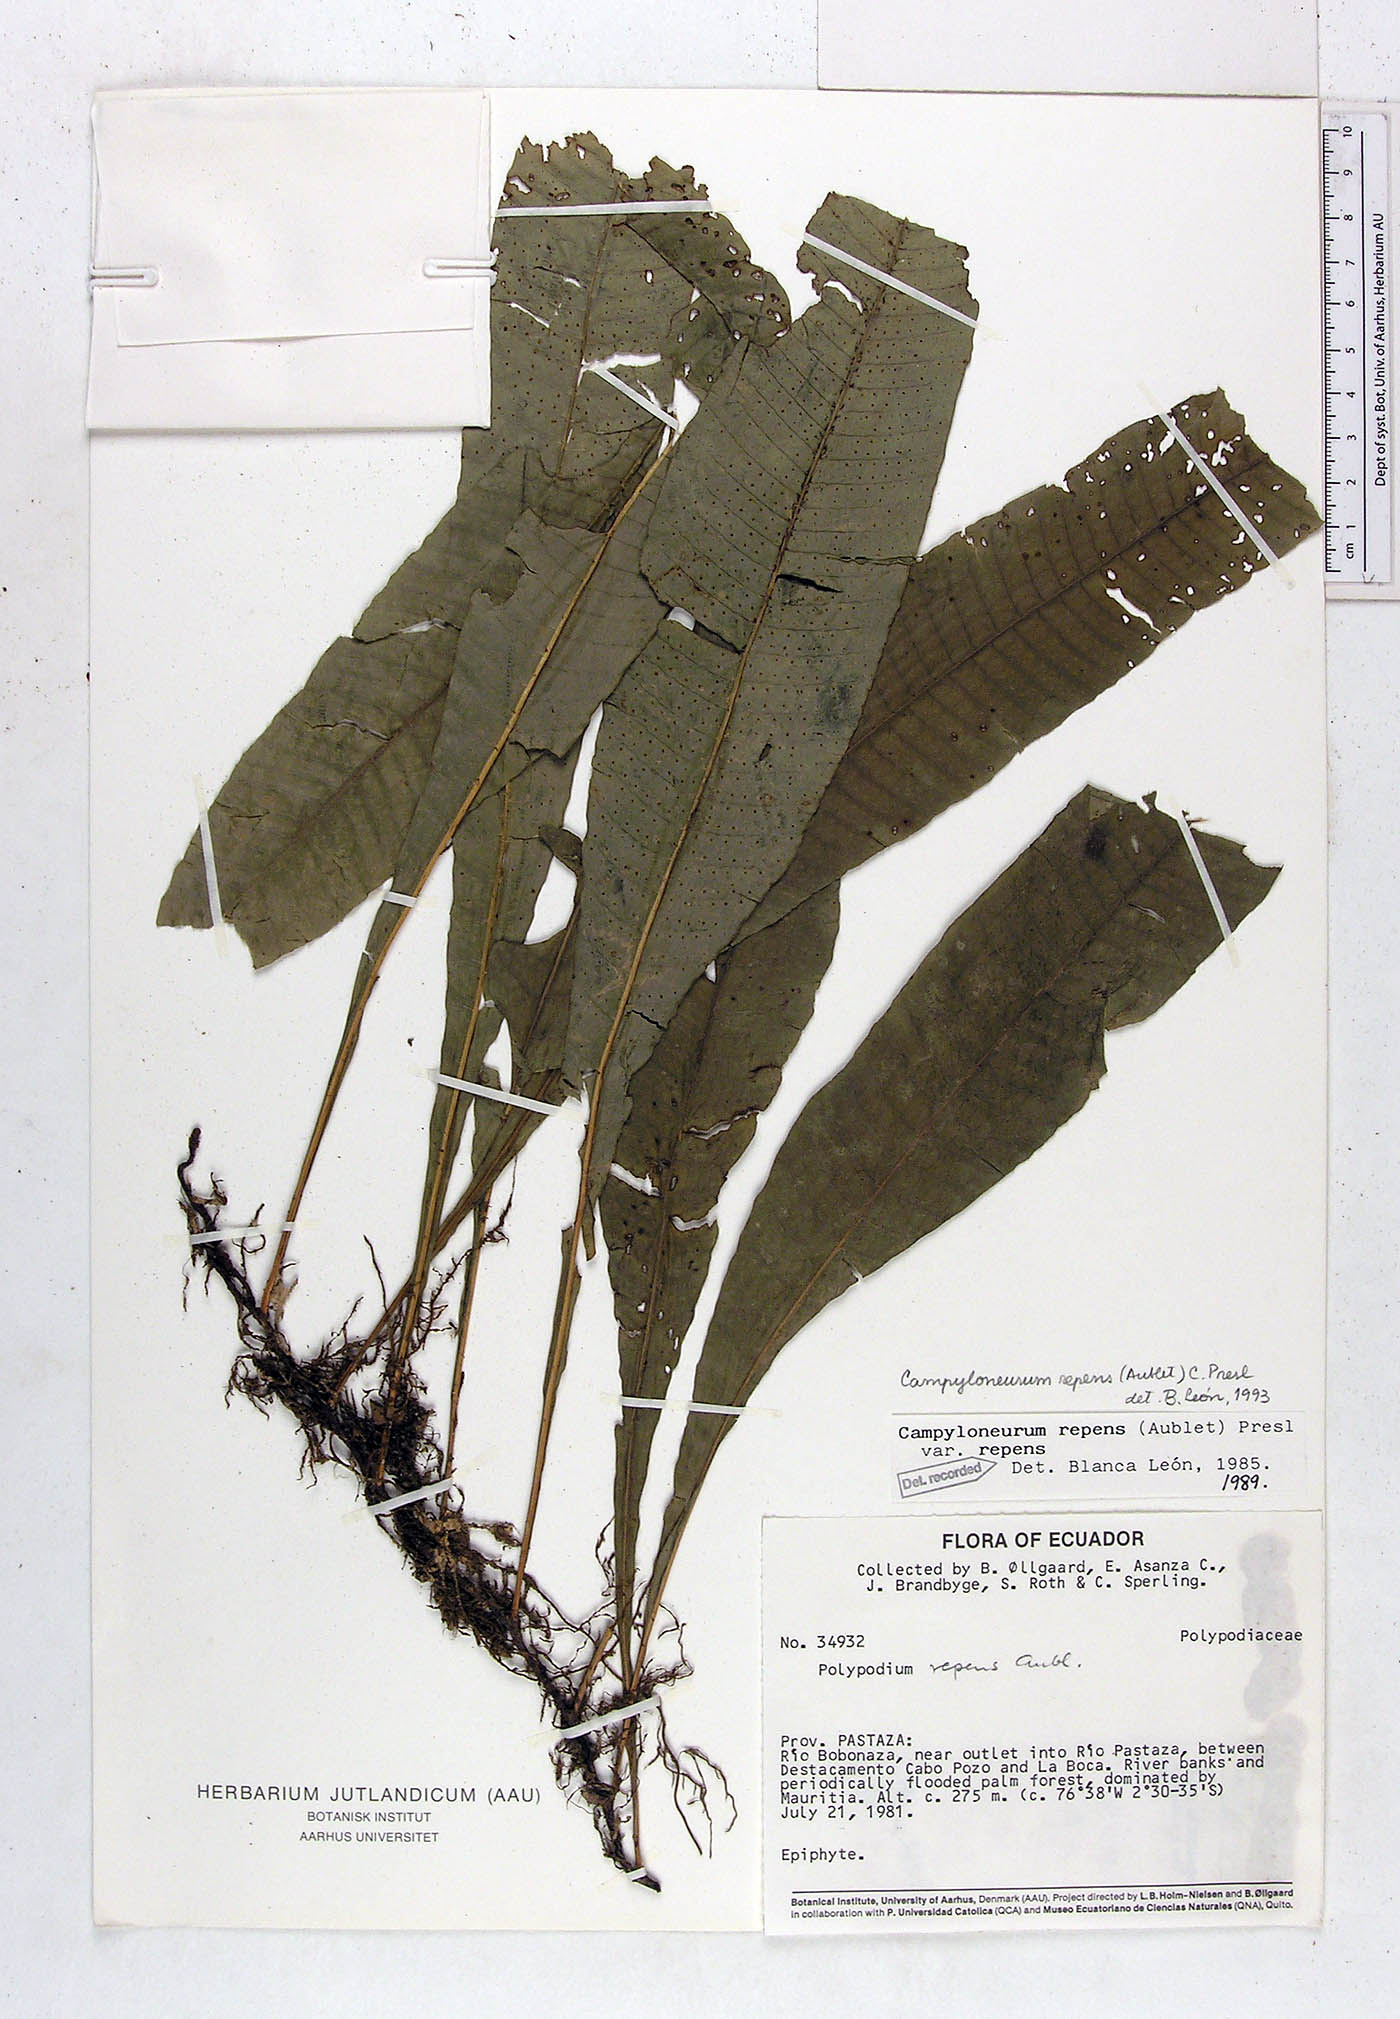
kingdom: Plantae
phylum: Tracheophyta
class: Polypodiopsida
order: Polypodiales
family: Polypodiaceae
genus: Campyloneurum
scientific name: Campyloneurum repens
